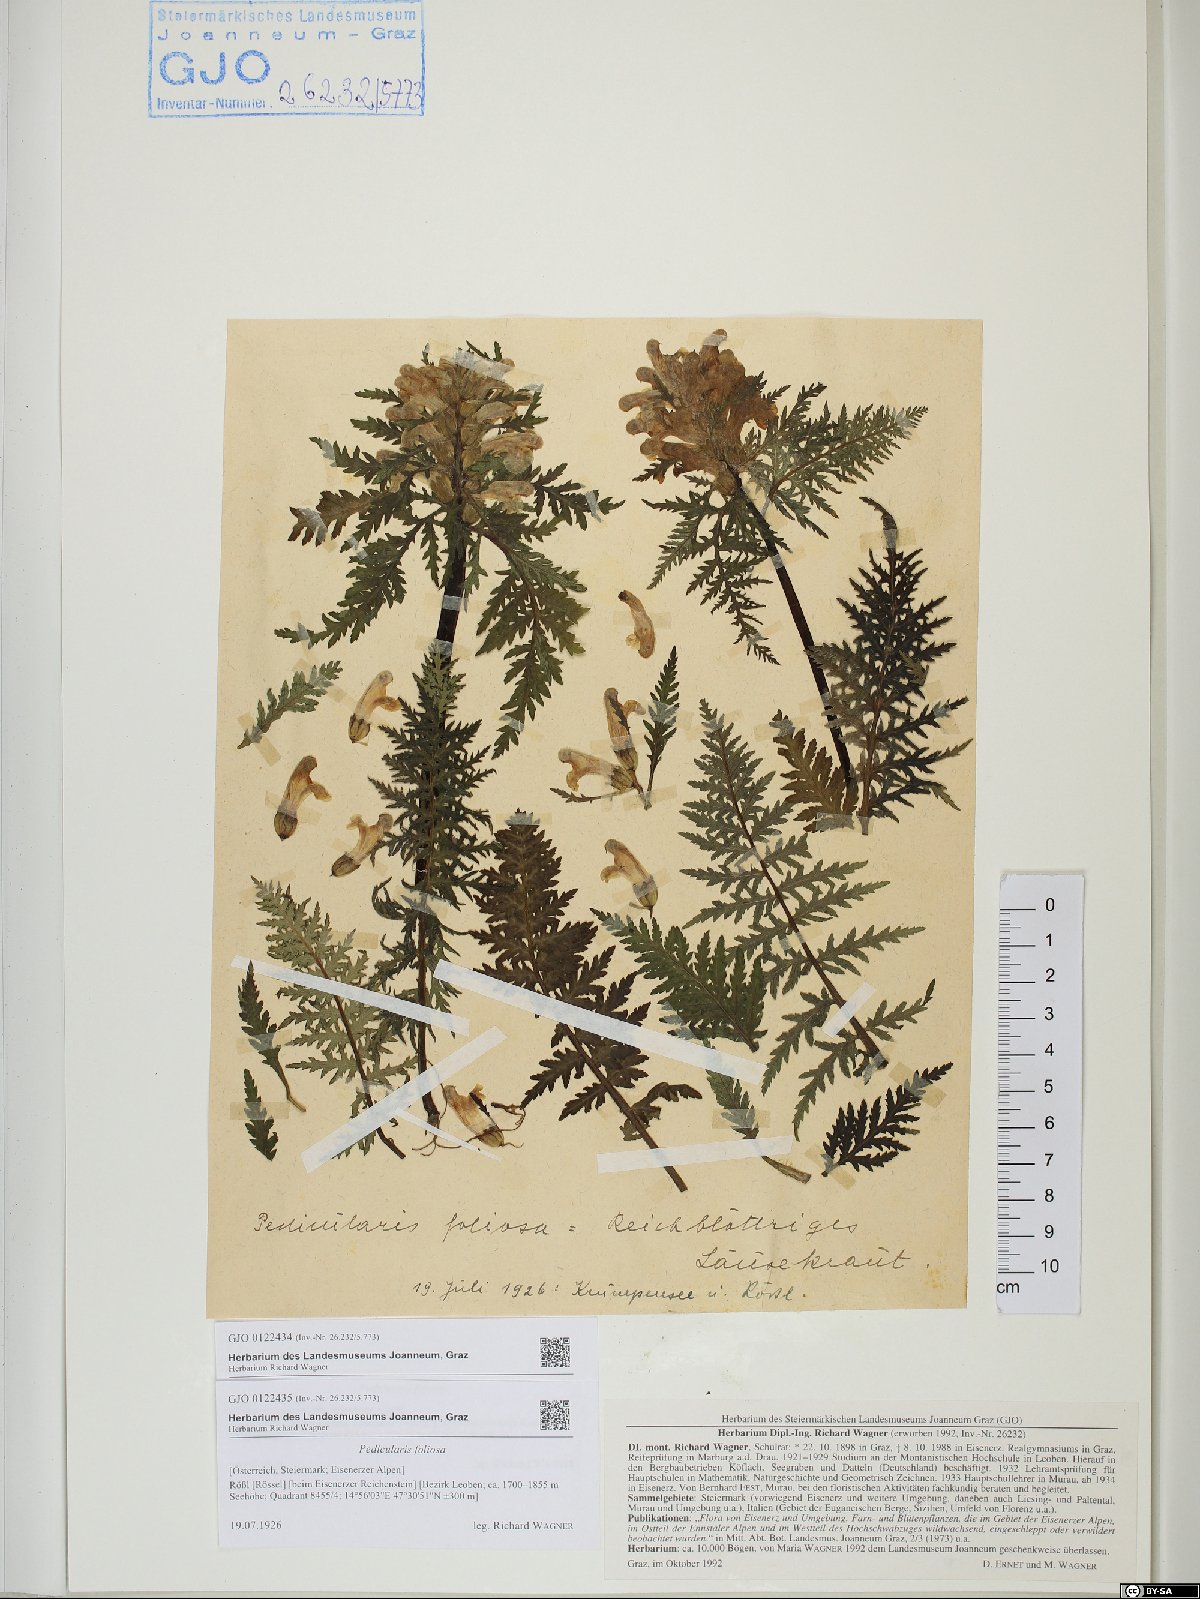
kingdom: Plantae
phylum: Tracheophyta
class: Magnoliopsida
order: Lamiales
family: Orobanchaceae
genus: Pedicularis
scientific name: Pedicularis foliosa
